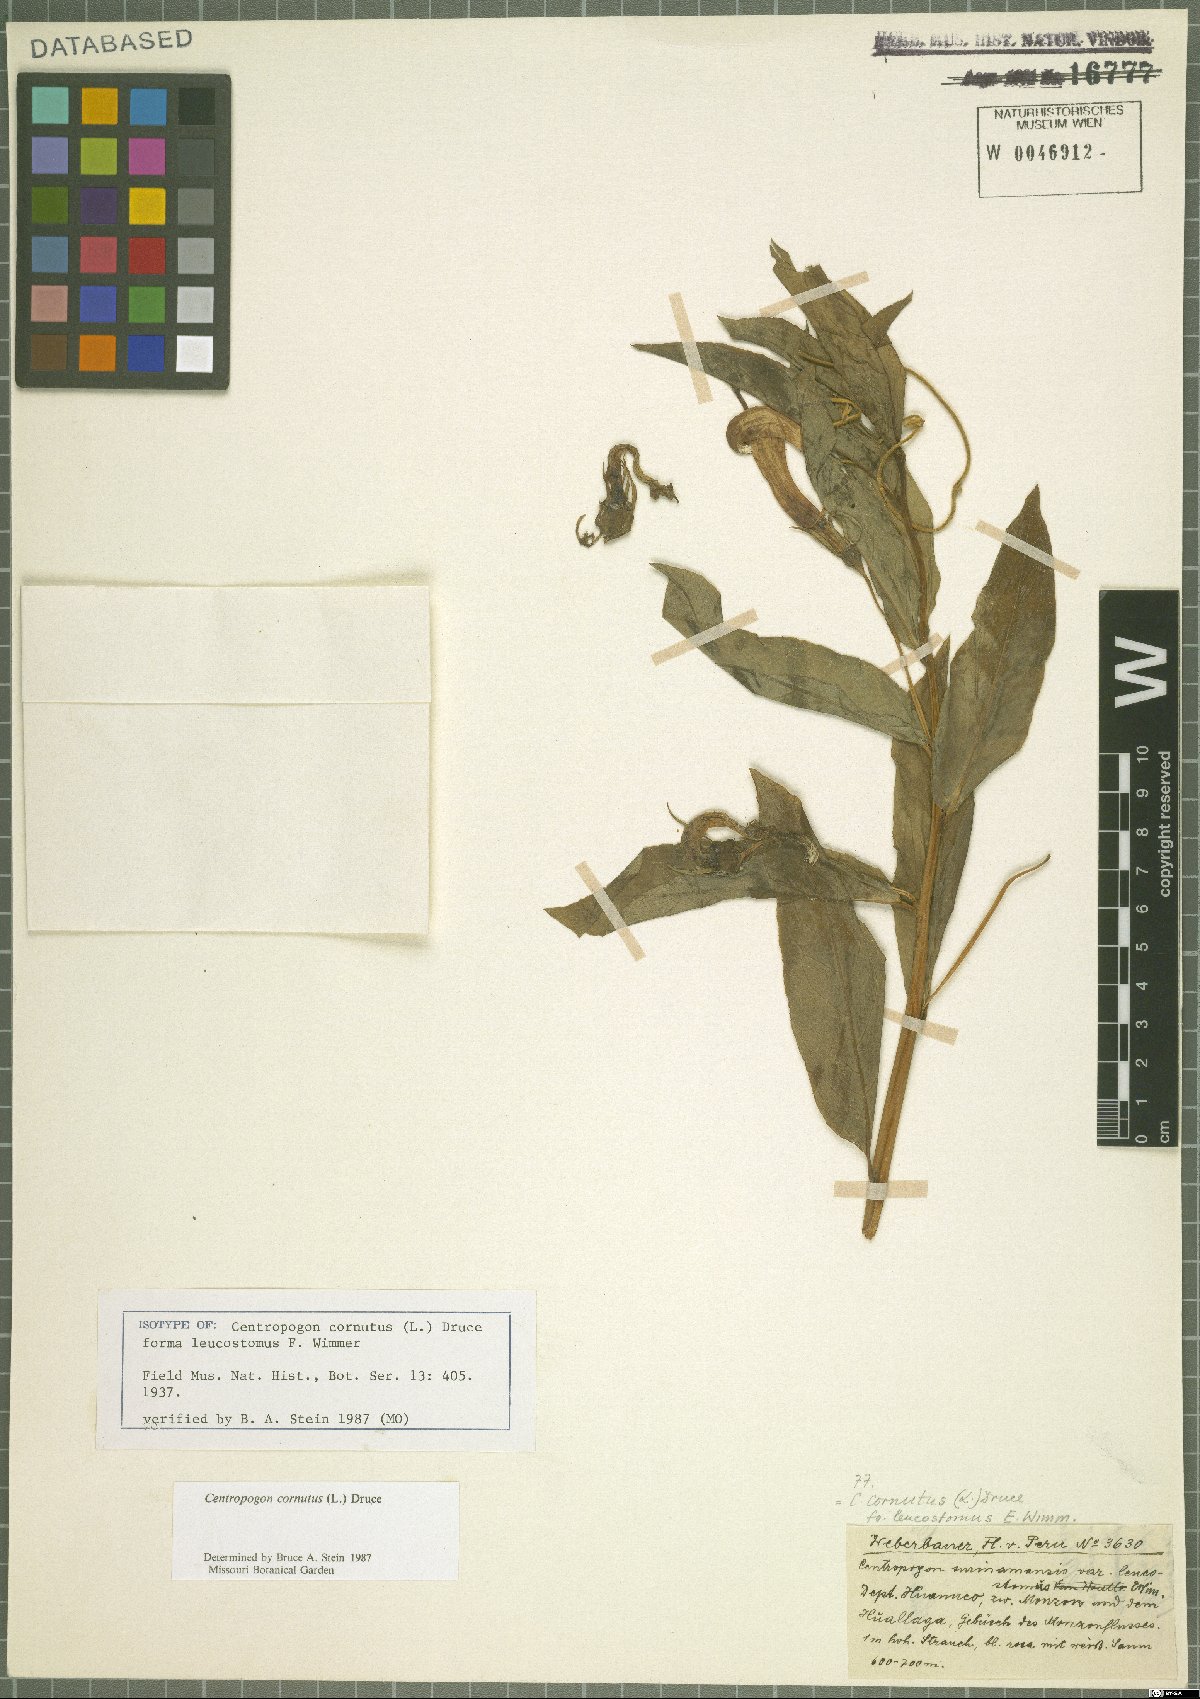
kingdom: Plantae
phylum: Tracheophyta
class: Magnoliopsida
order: Asterales
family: Campanulaceae
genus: Centropogon
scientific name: Centropogon cornutus
